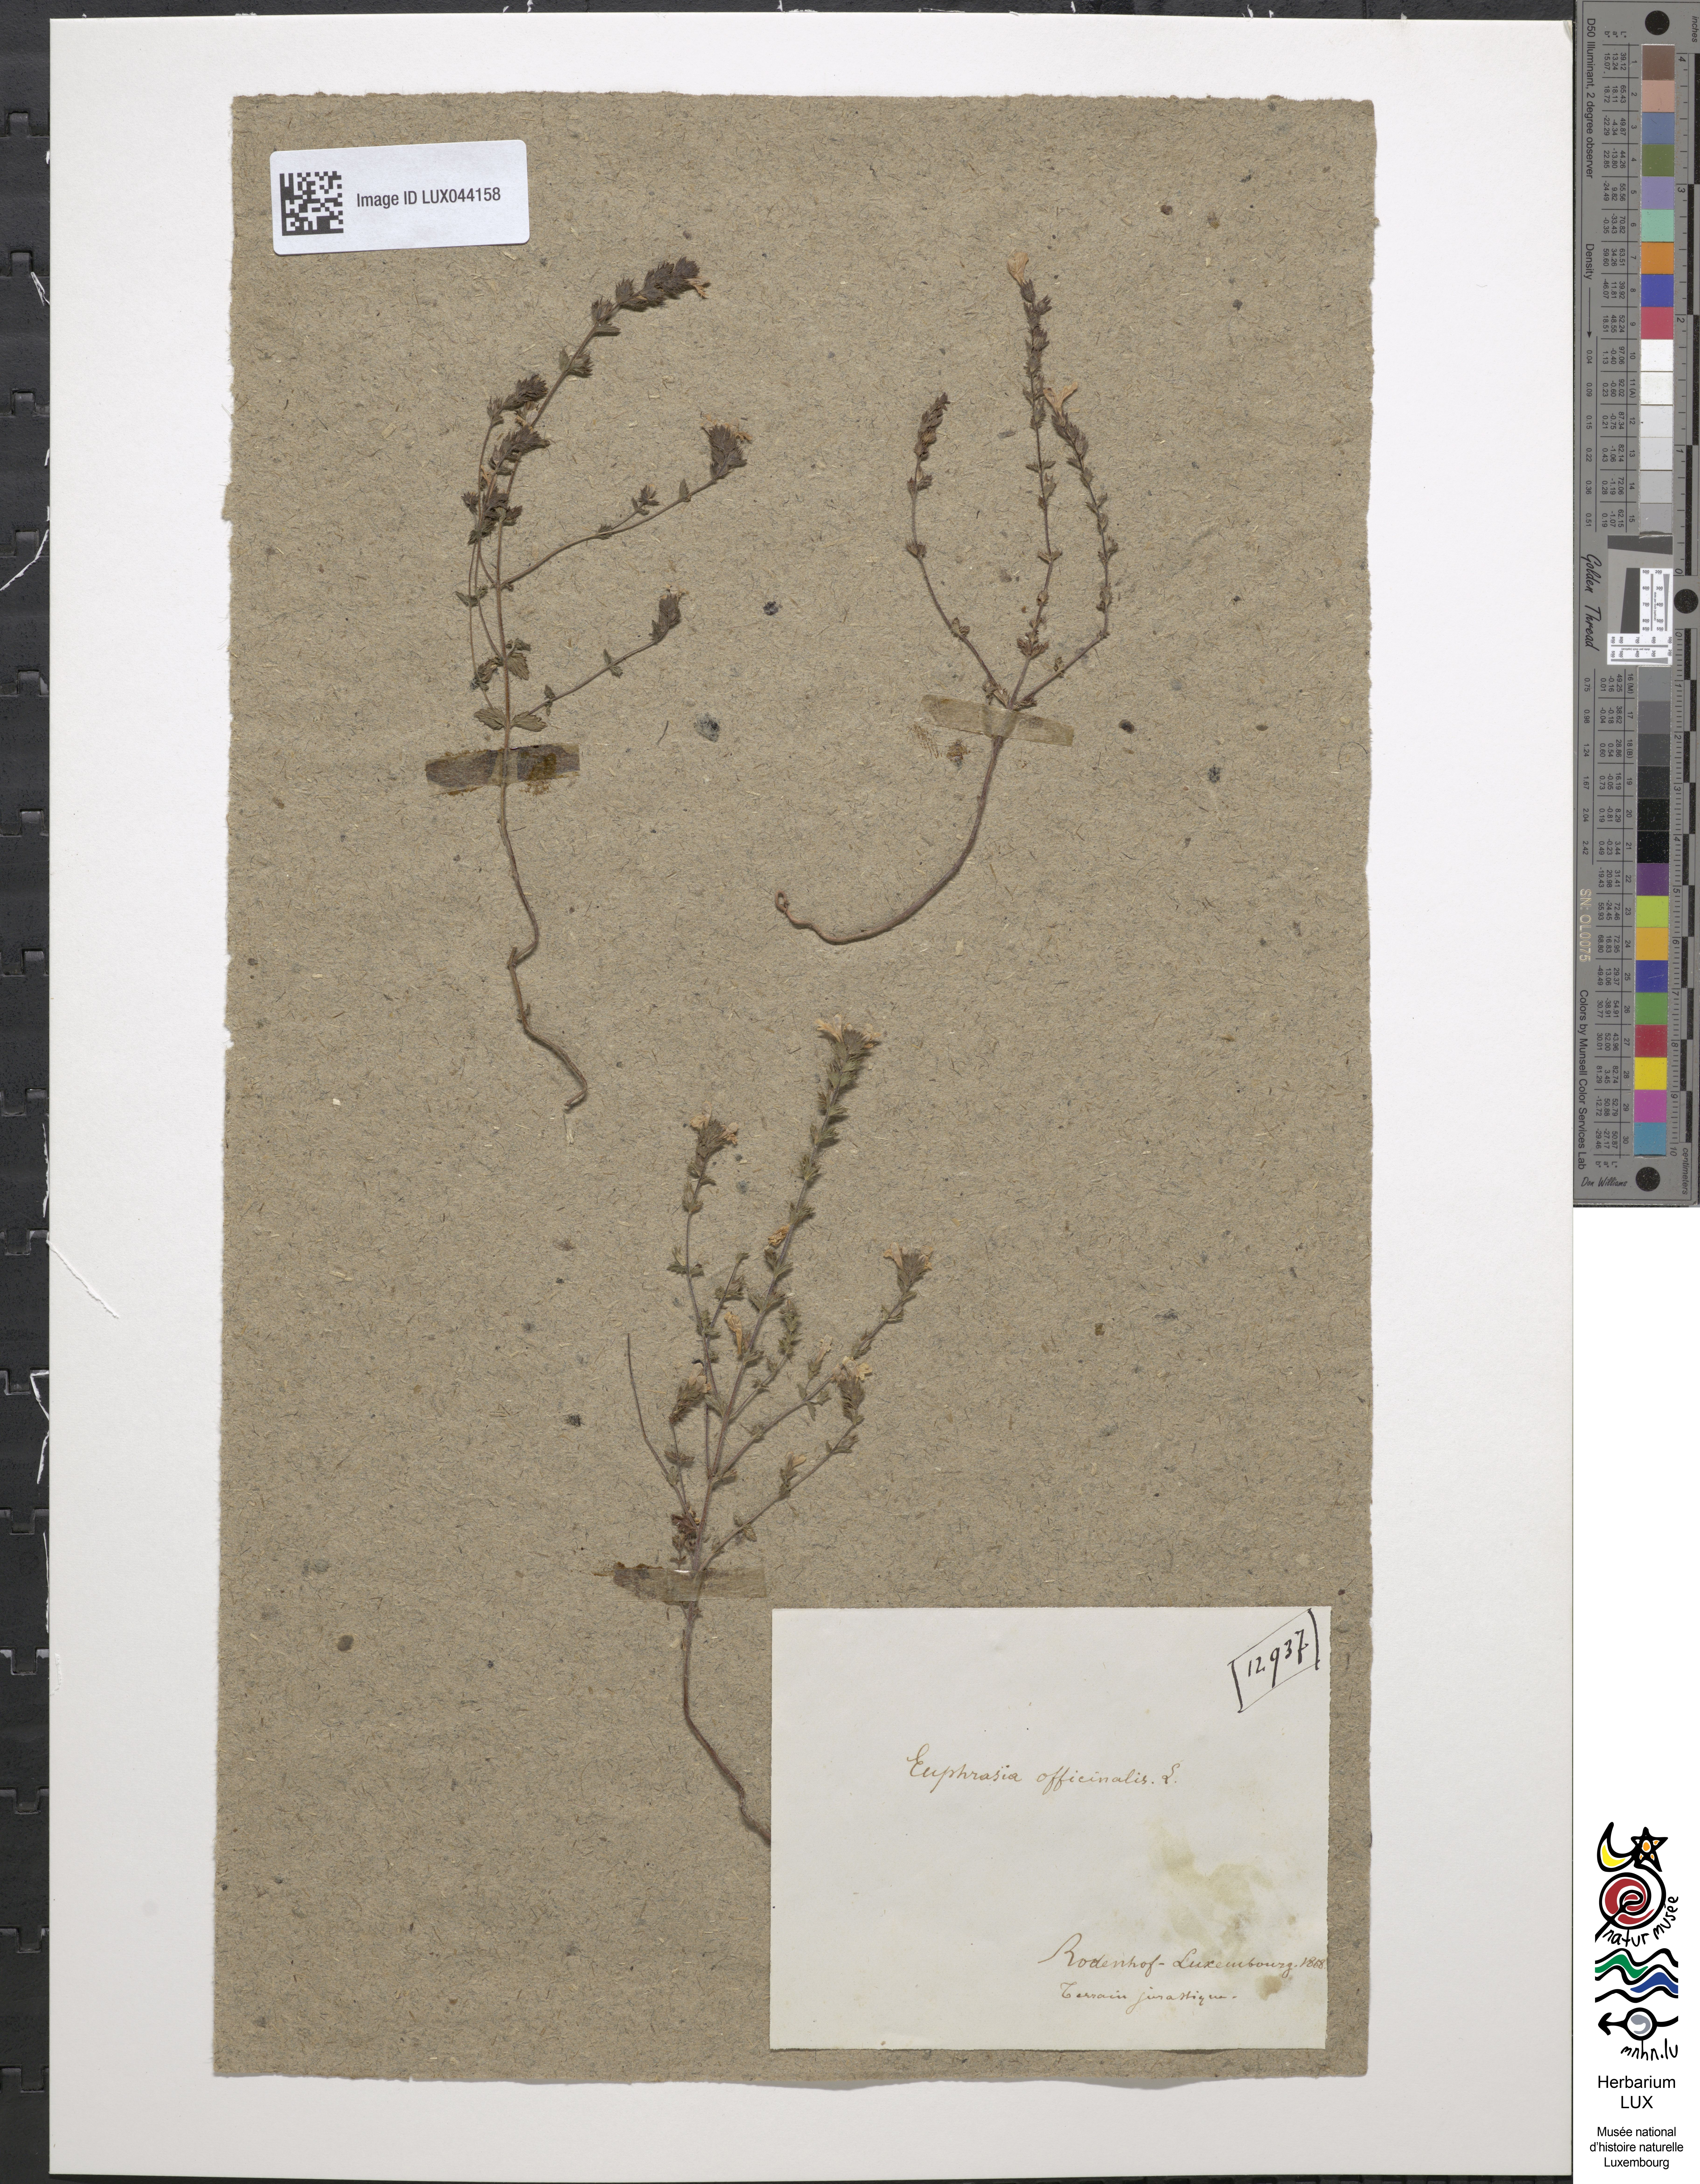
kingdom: Plantae
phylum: Tracheophyta
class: Magnoliopsida
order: Lamiales
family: Orobanchaceae
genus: Euphrasia
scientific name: Euphrasia officinalis
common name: Eyebright
